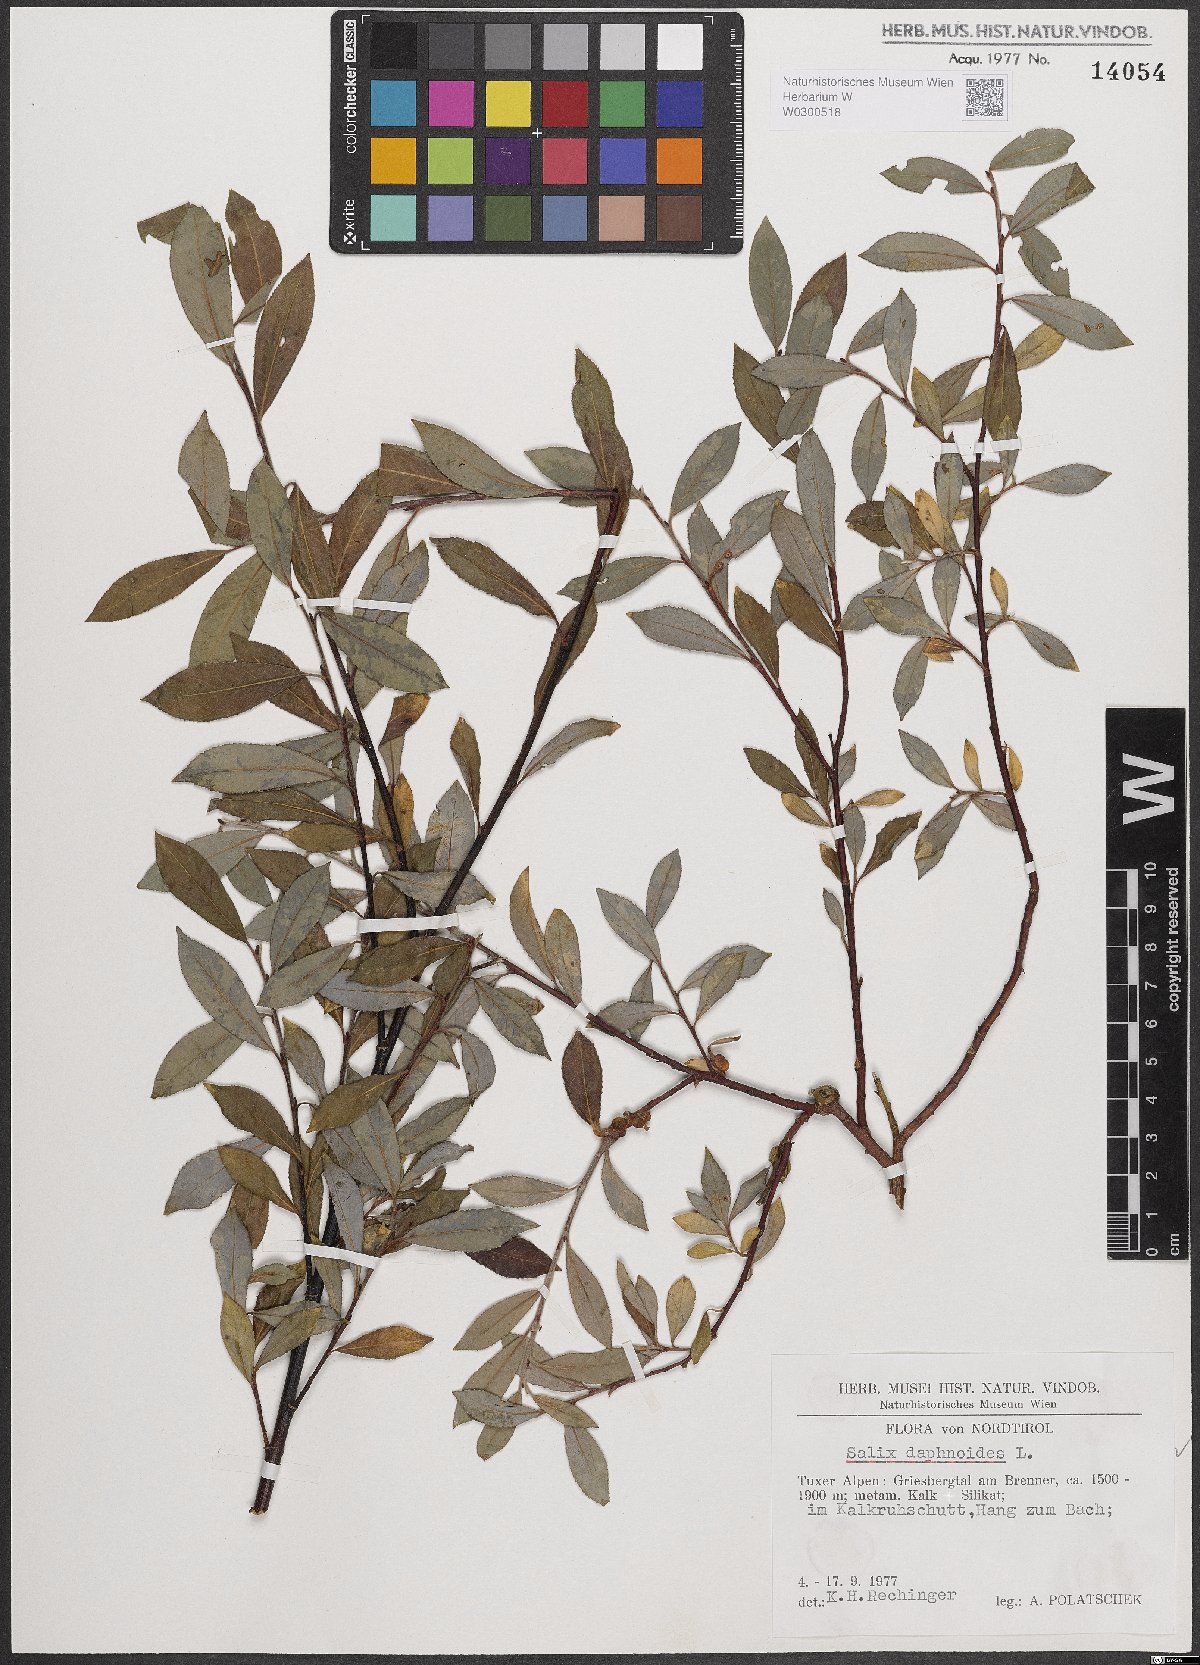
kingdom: Plantae
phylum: Tracheophyta
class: Magnoliopsida
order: Malpighiales
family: Salicaceae
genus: Salix
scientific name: Salix daphnoides
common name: European violet-willow
